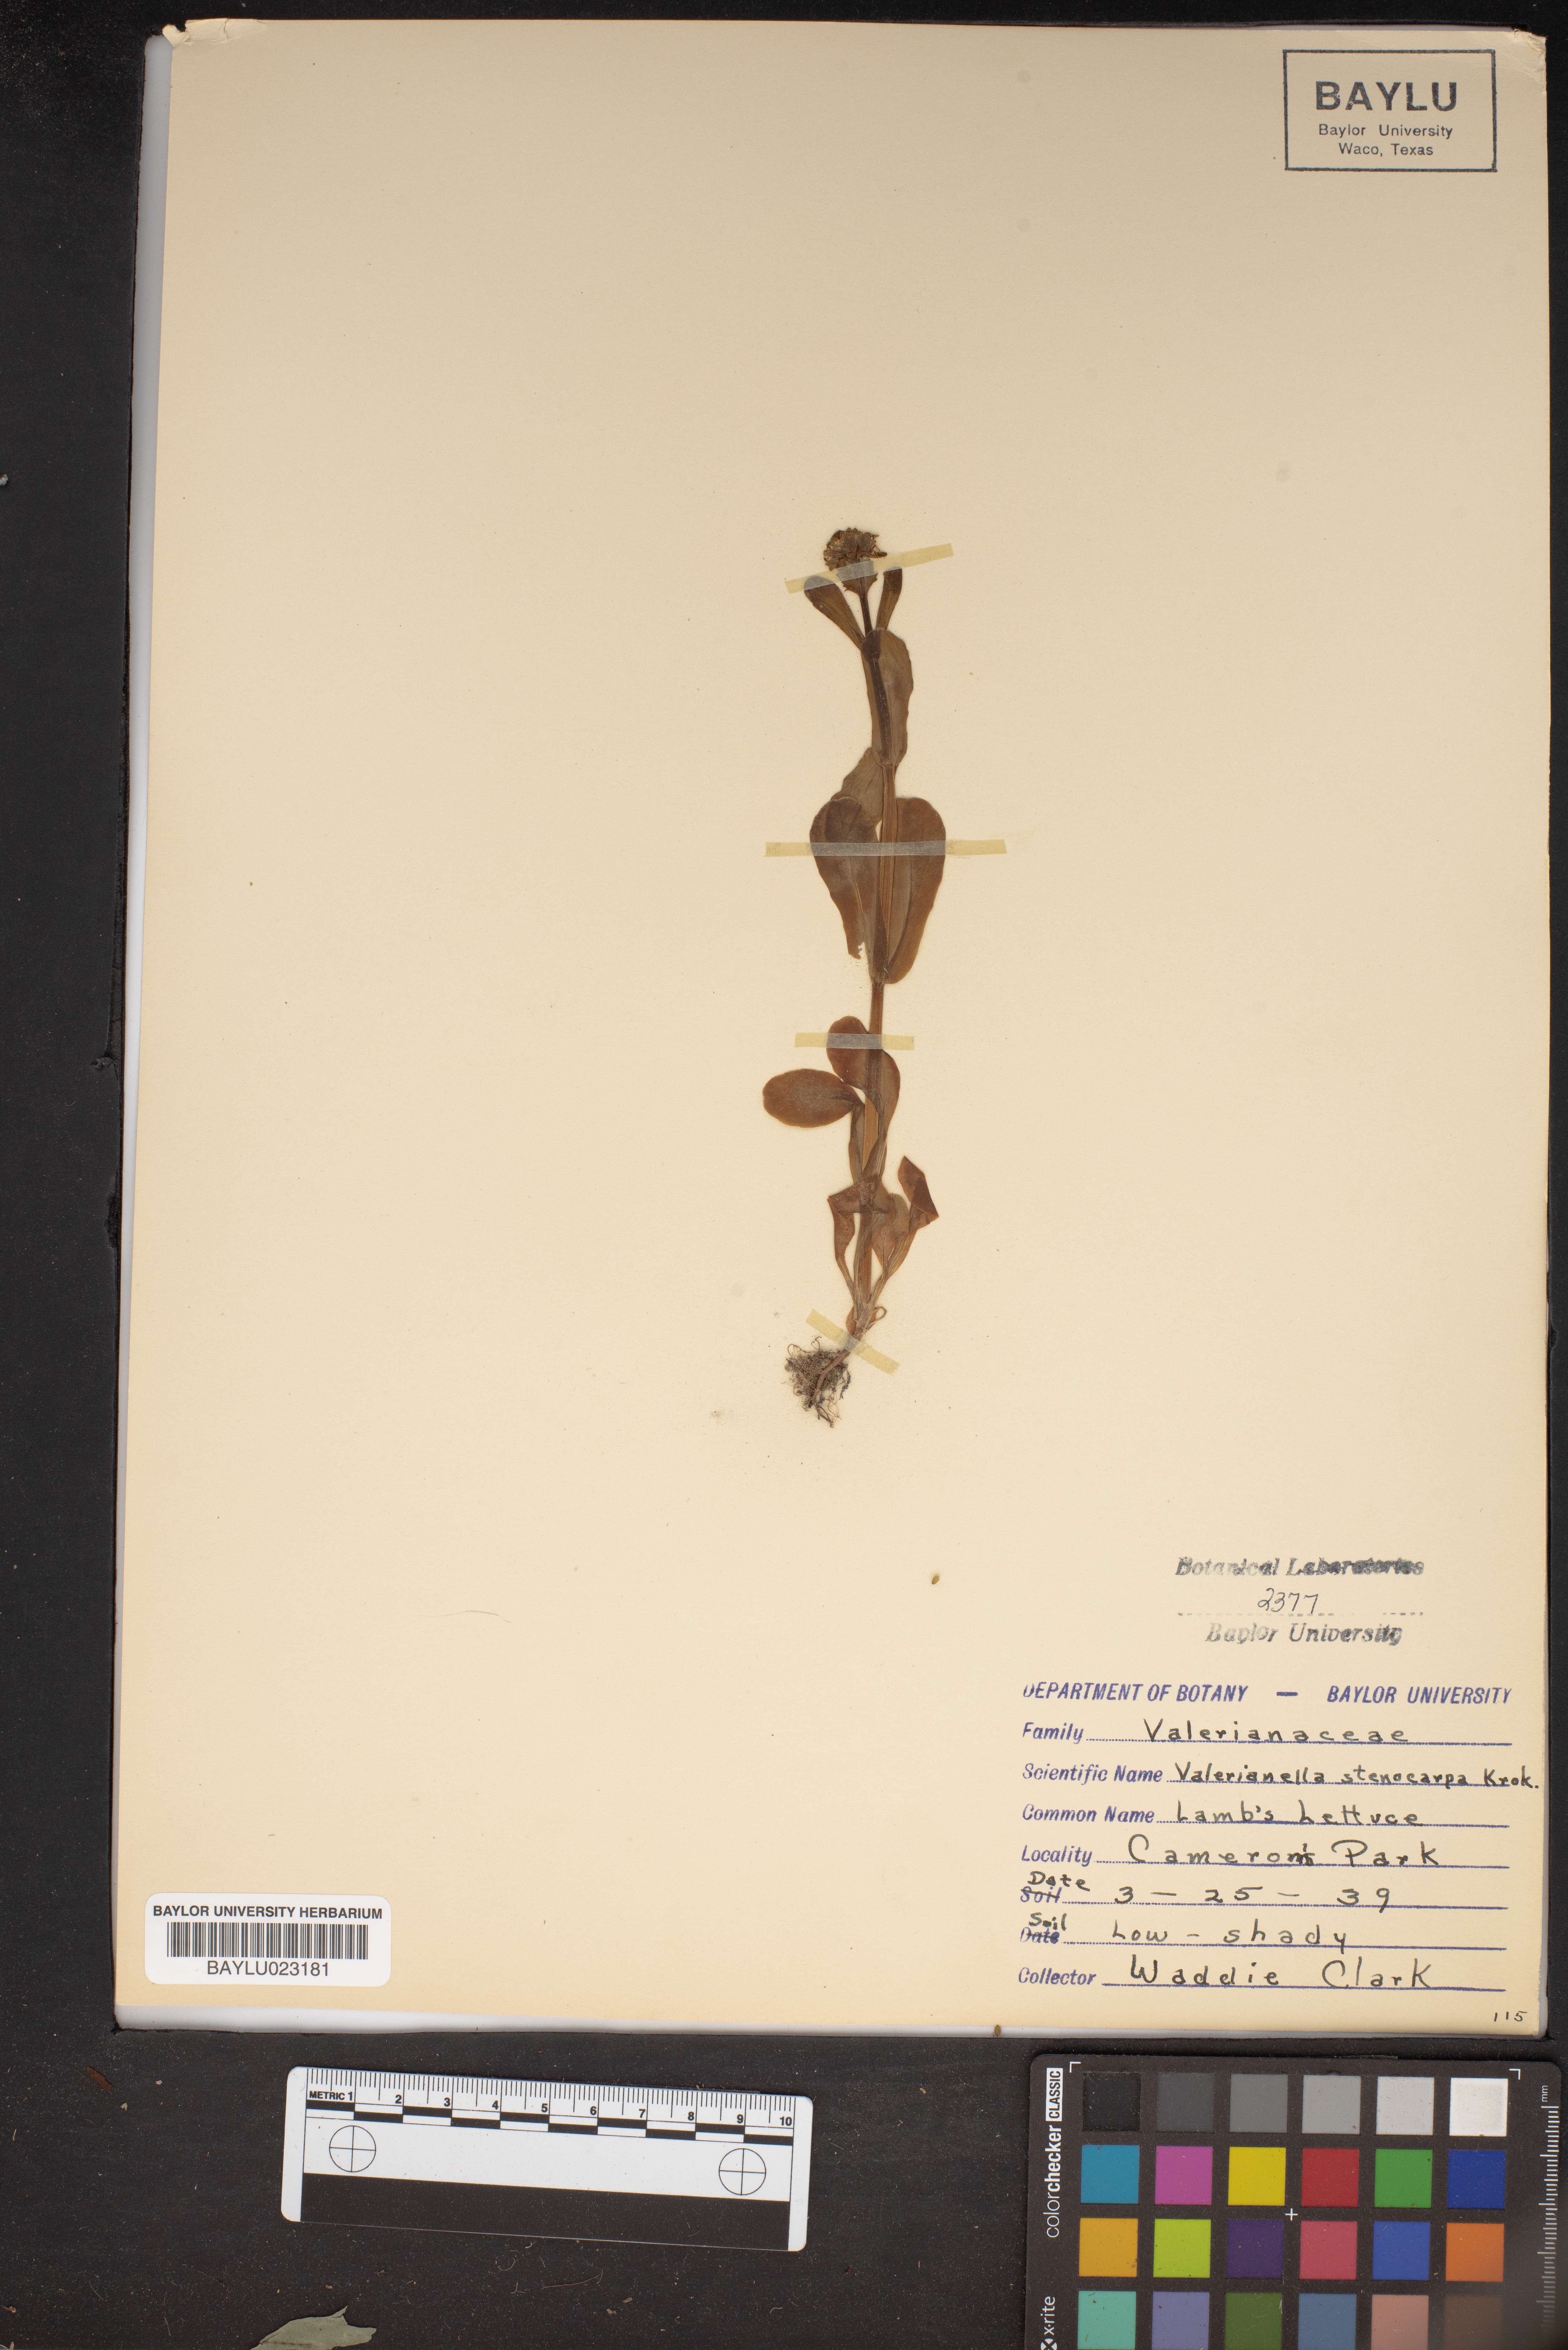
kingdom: Plantae
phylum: Tracheophyta
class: Magnoliopsida
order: Dipsacales
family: Caprifoliaceae
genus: Valerianella
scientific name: Valerianella stenocarpa
